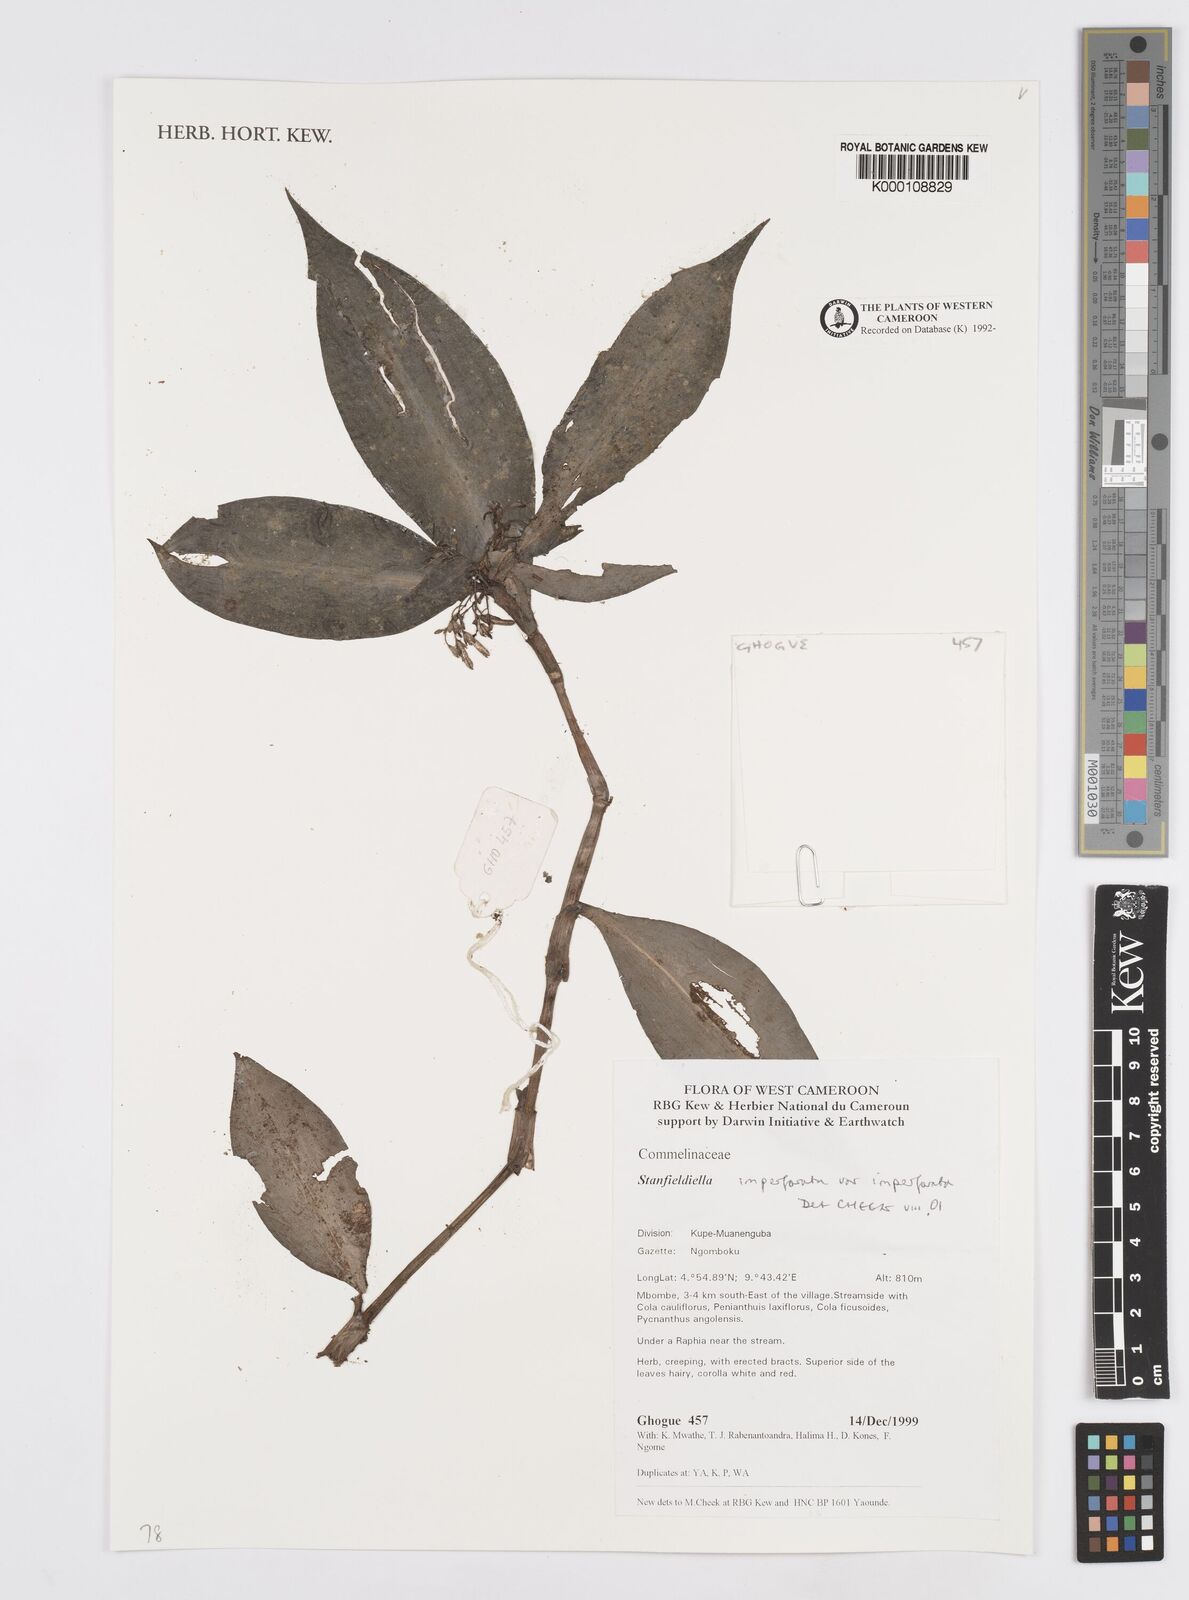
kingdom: Plantae
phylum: Tracheophyta
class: Liliopsida
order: Commelinales
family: Commelinaceae
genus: Stanfieldiella
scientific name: Stanfieldiella imperforata
